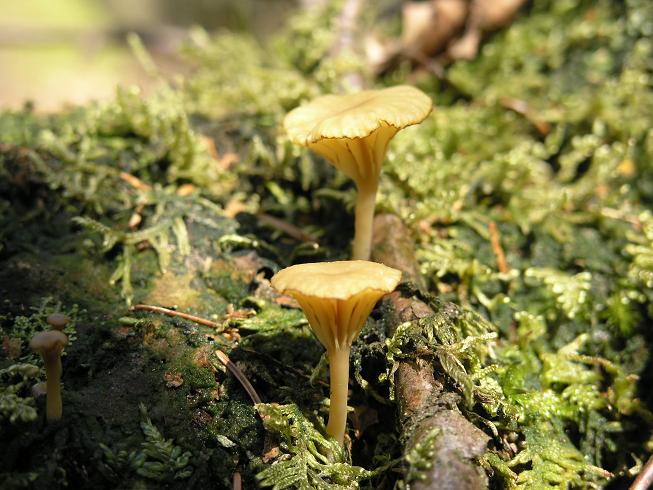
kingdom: Fungi
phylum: Basidiomycota
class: Agaricomycetes
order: Agaricales
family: Hygrophoraceae
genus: Lichenomphalia
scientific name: Lichenomphalia umbellifera
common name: tørve-lavhat
